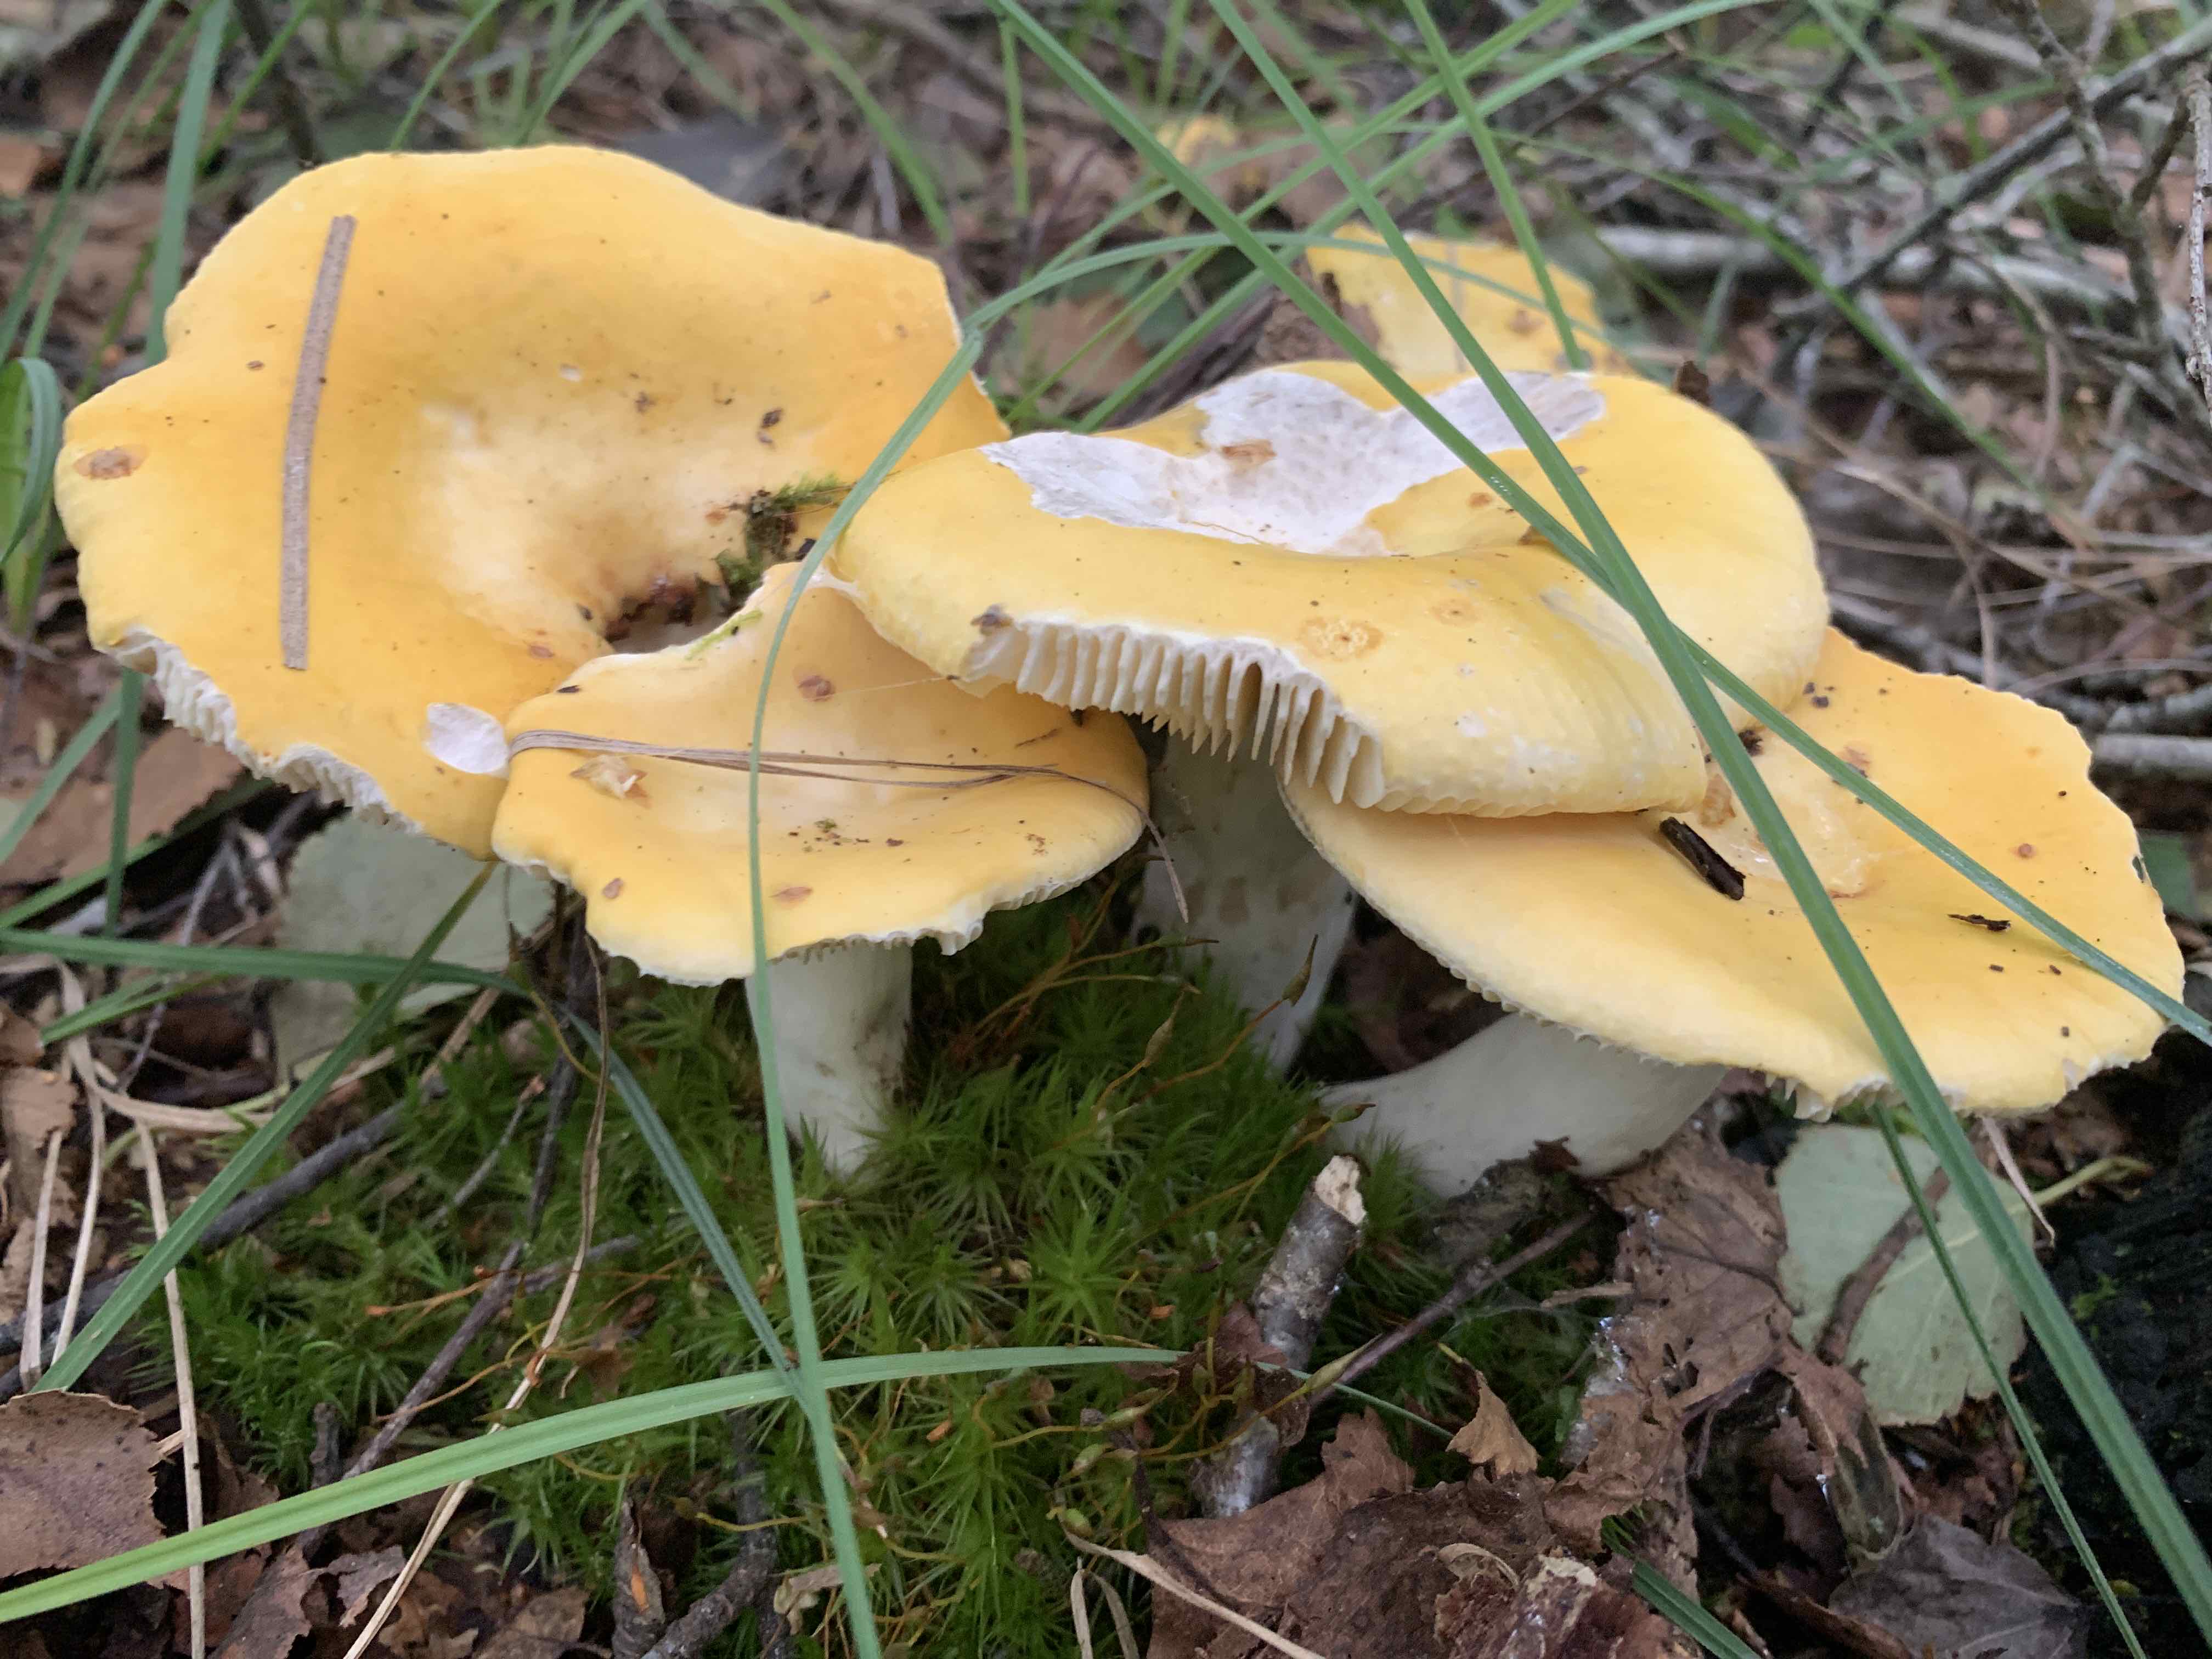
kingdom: Fungi
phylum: Basidiomycota
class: Agaricomycetes
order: Russulales
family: Russulaceae
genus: Russula
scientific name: Russula claroflava
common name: birke-skørhat
